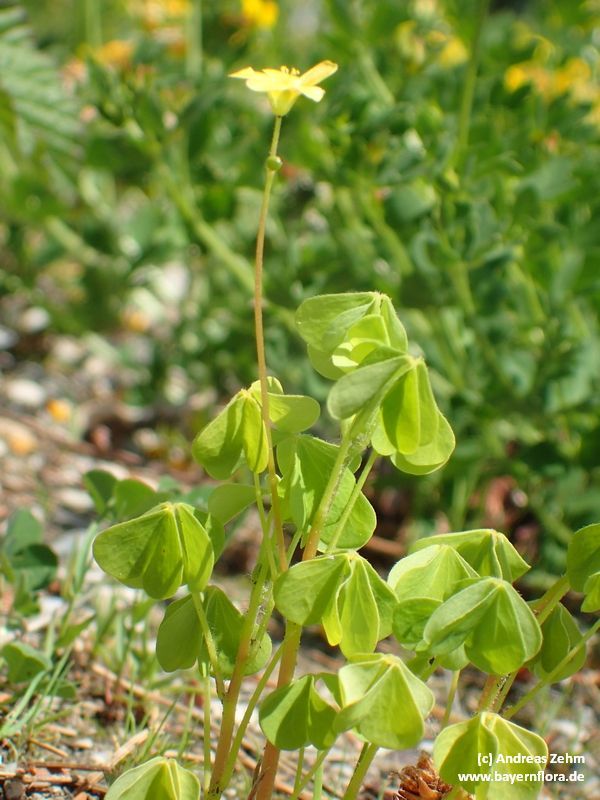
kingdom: Plantae
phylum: Tracheophyta
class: Magnoliopsida
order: Oxalidales
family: Oxalidaceae
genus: Oxalis
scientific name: Oxalis stricta
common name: Upright yellow-sorrel
